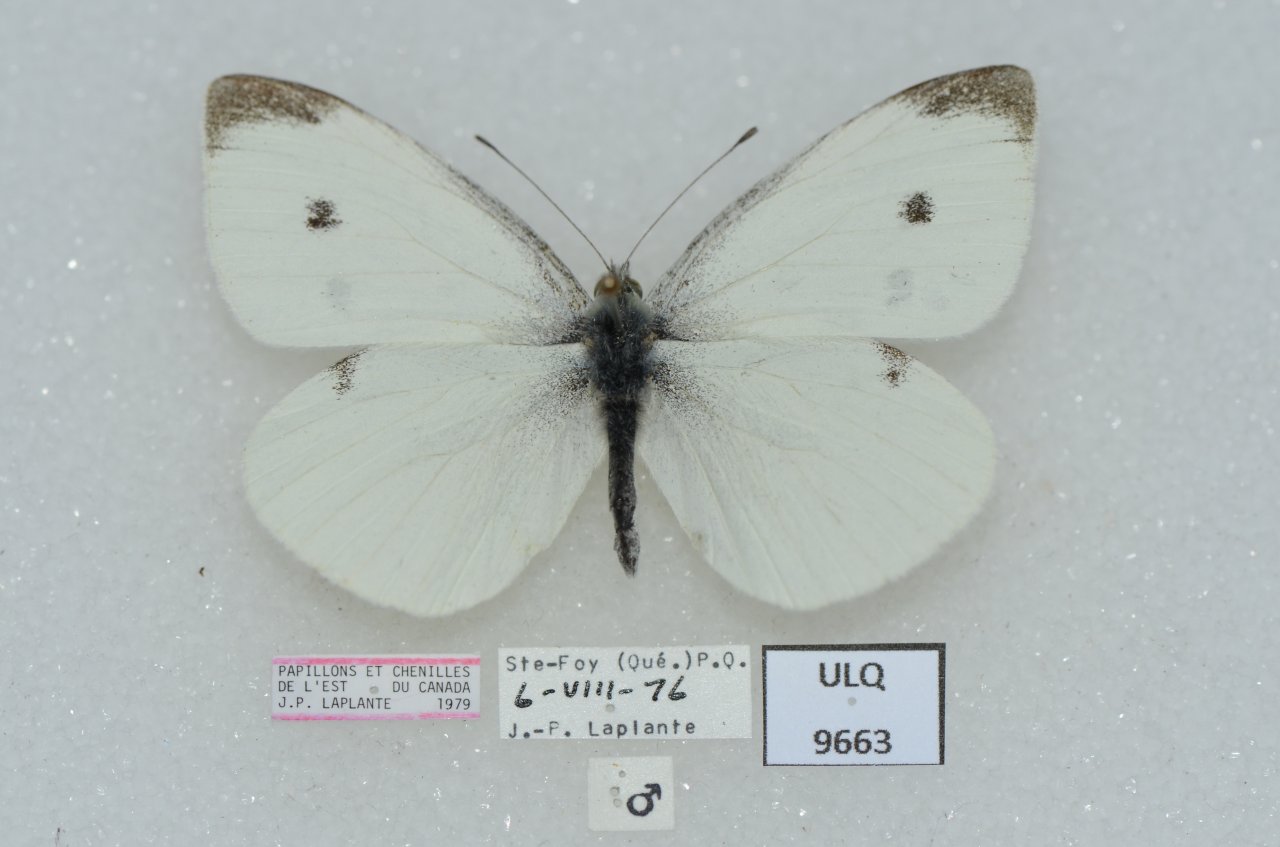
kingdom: Animalia
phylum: Arthropoda
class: Insecta
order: Lepidoptera
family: Pieridae
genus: Pieris
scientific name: Pieris rapae
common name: Cabbage White
